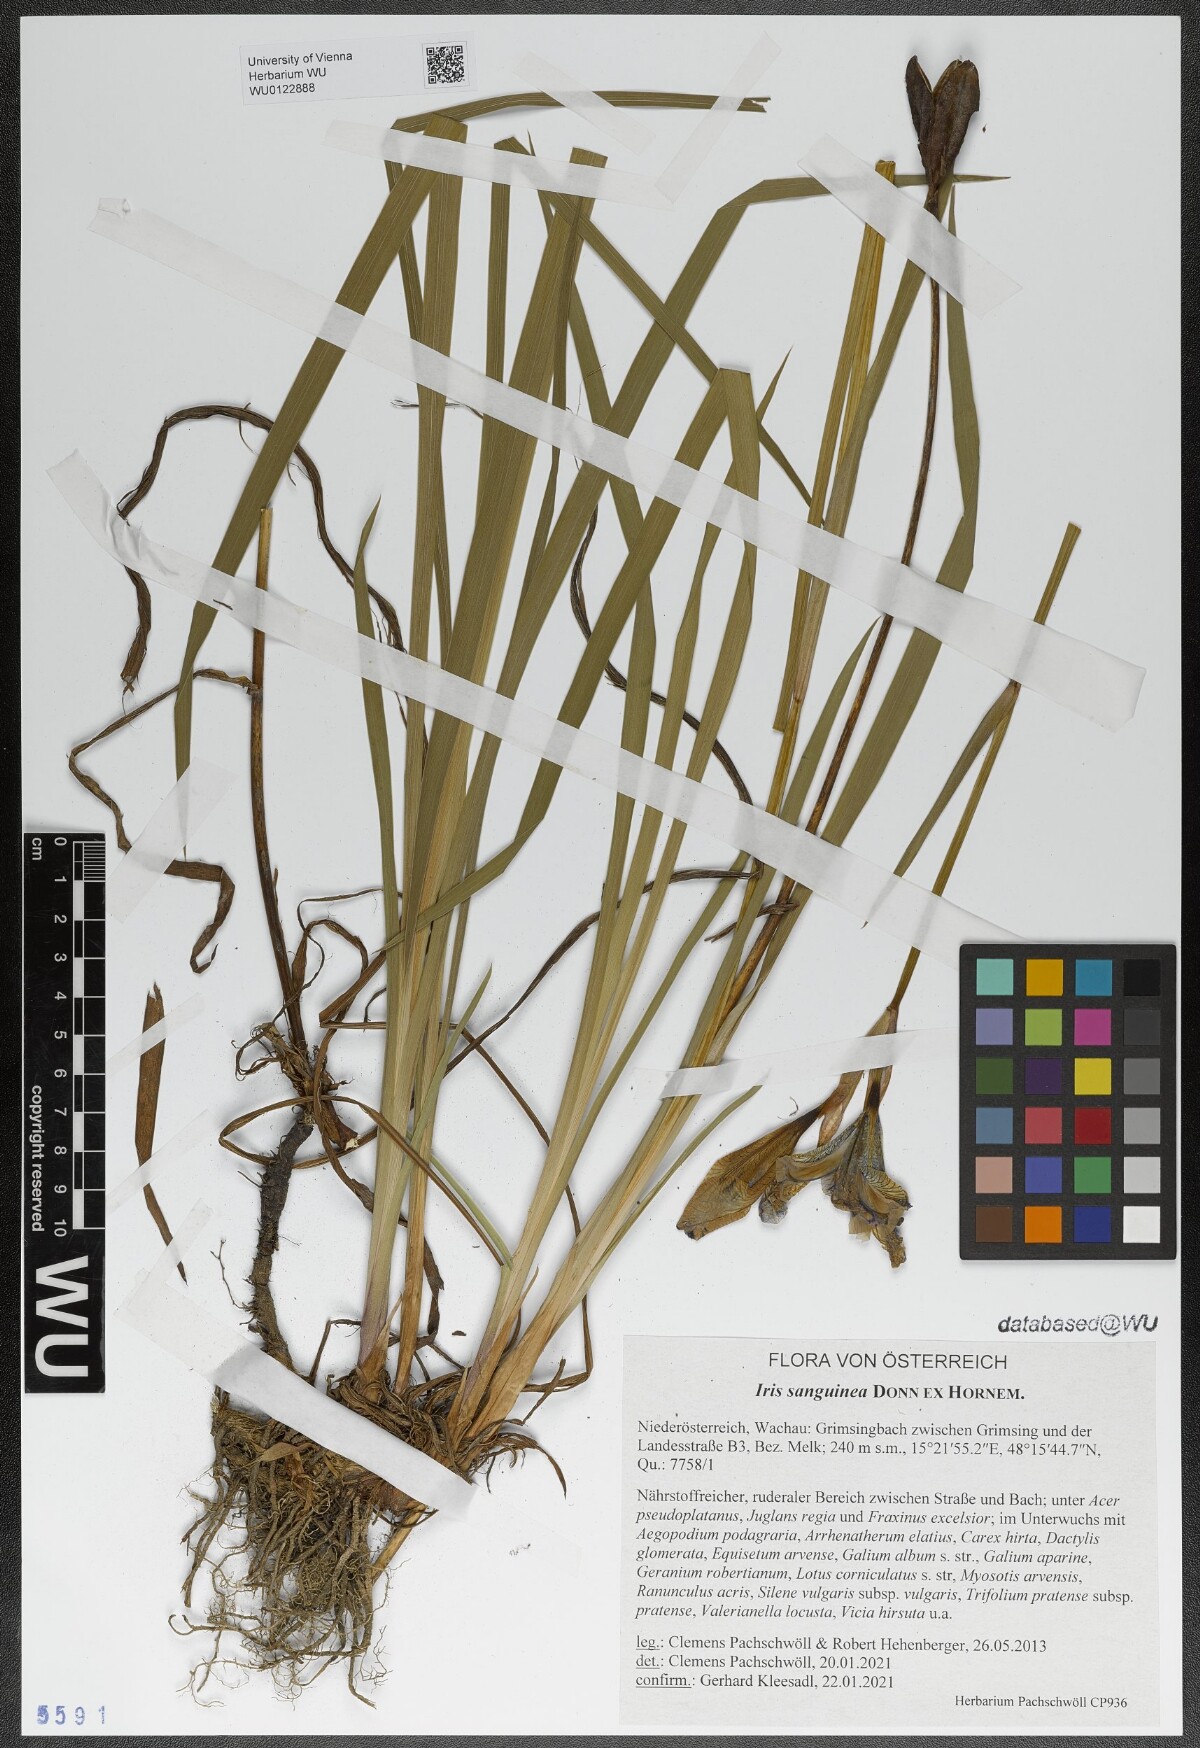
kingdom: Plantae
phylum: Tracheophyta
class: Liliopsida
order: Asparagales
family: Iridaceae
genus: Iris
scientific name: Iris sanguinea
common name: Blood iris
